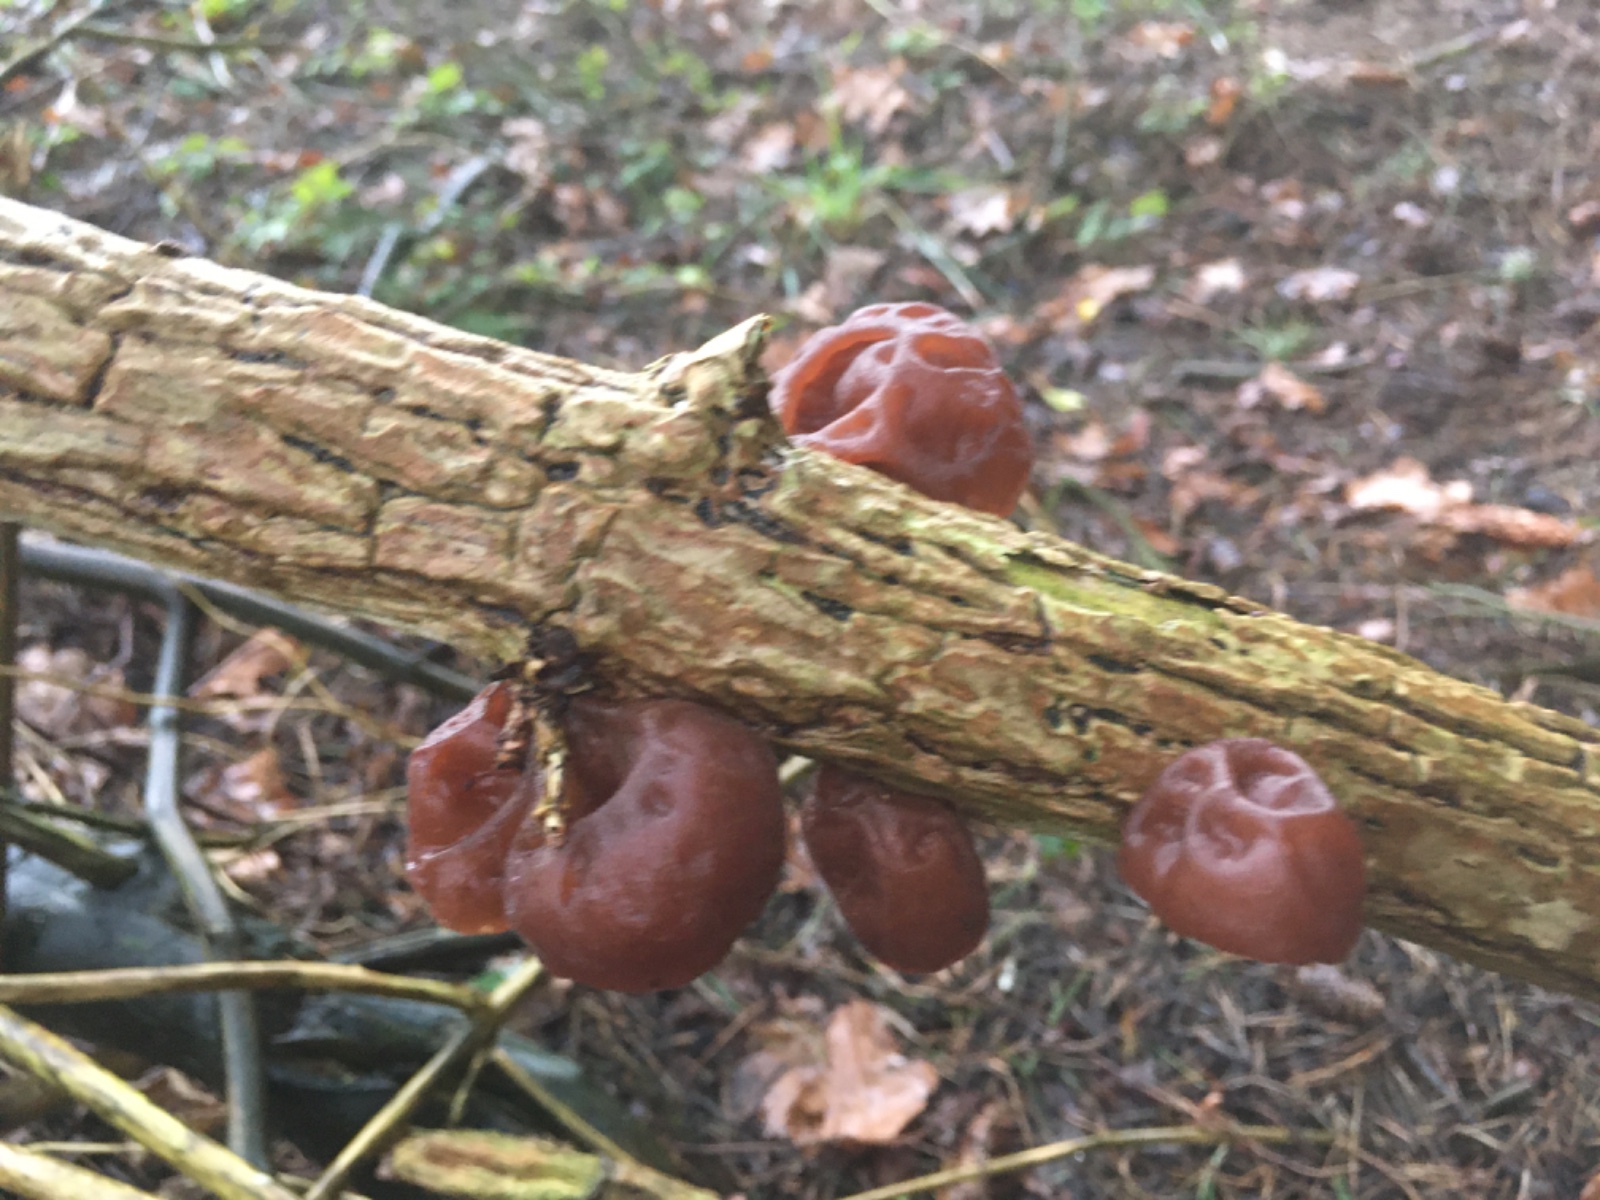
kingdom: Fungi
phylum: Basidiomycota
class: Agaricomycetes
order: Auriculariales
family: Auriculariaceae
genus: Auricularia
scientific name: Auricularia auricula-judae
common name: almindelig judasøre
